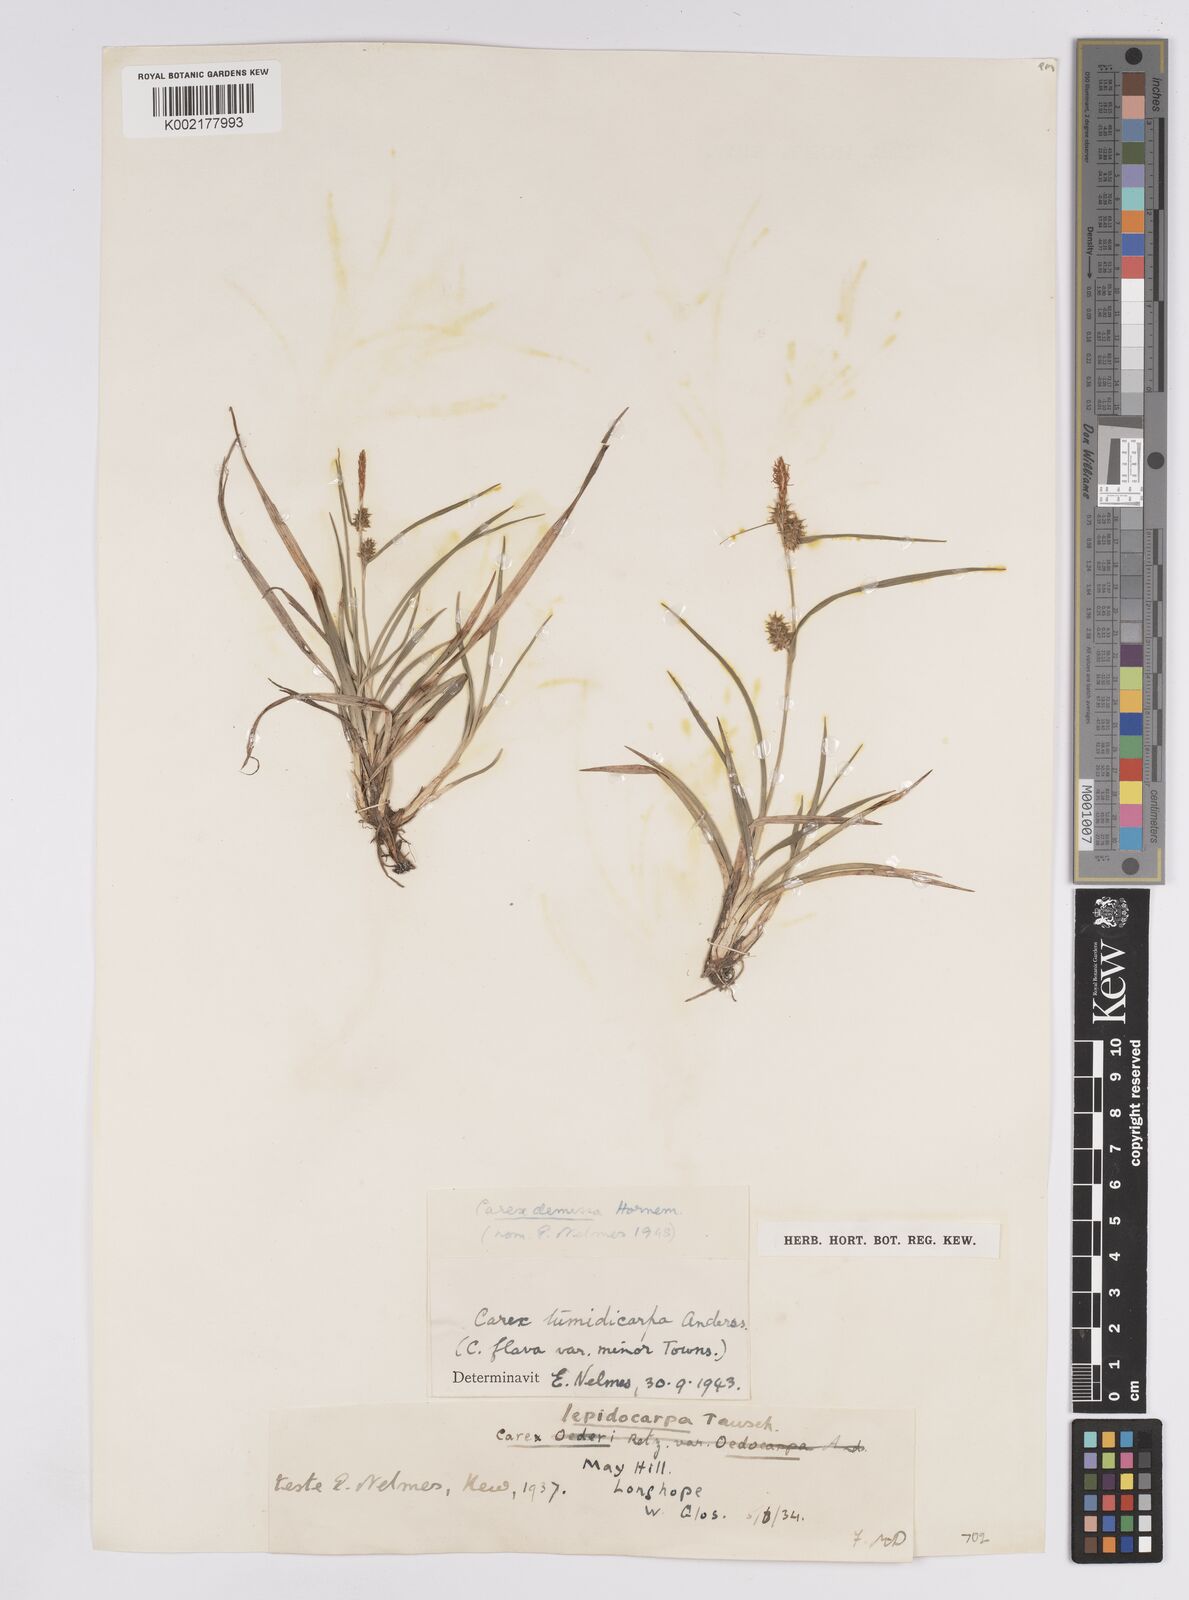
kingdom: Plantae
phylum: Tracheophyta
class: Liliopsida
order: Poales
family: Cyperaceae
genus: Carex
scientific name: Carex demissa
